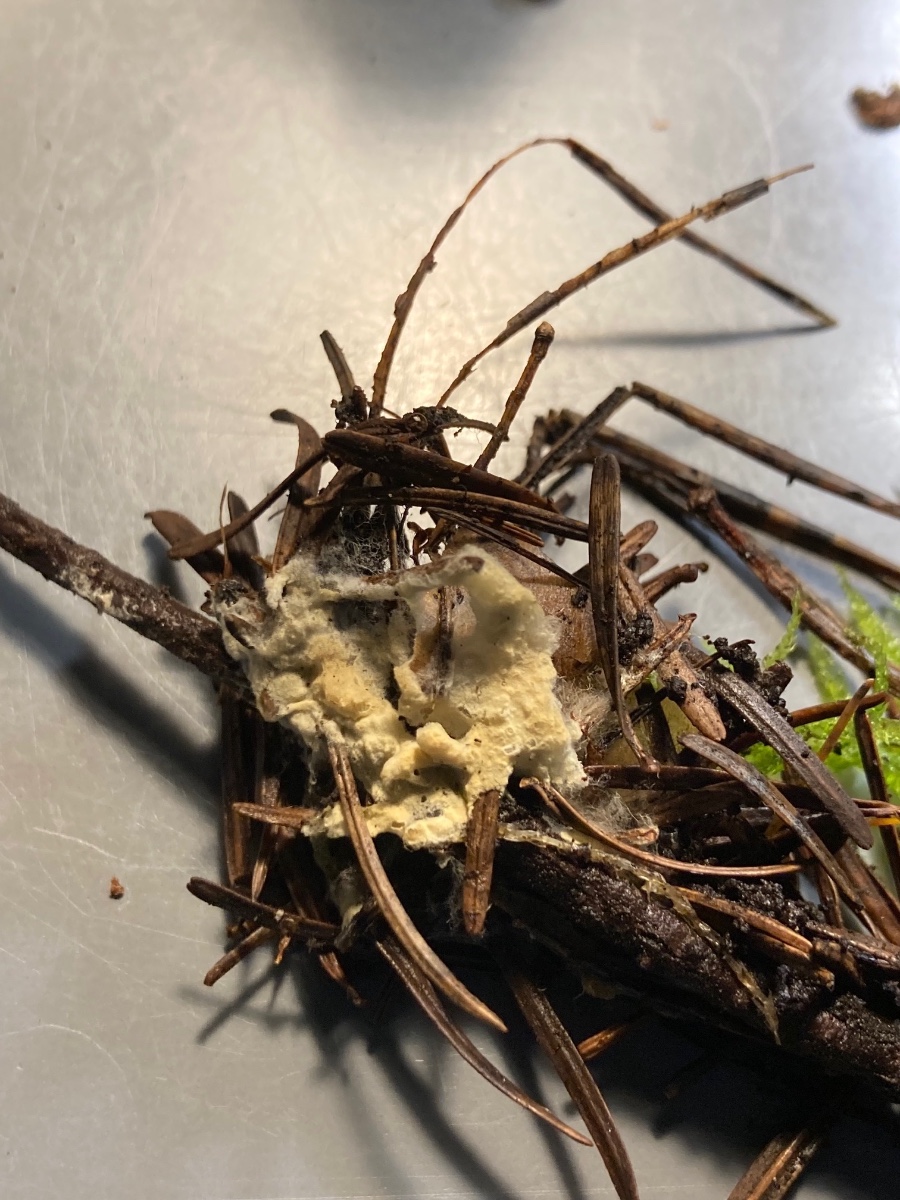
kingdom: Fungi
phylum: Basidiomycota
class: Agaricomycetes
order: Atheliales
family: Atheliaceae
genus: Amphinema
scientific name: Amphinema byssoides
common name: almindelig rodhinde
